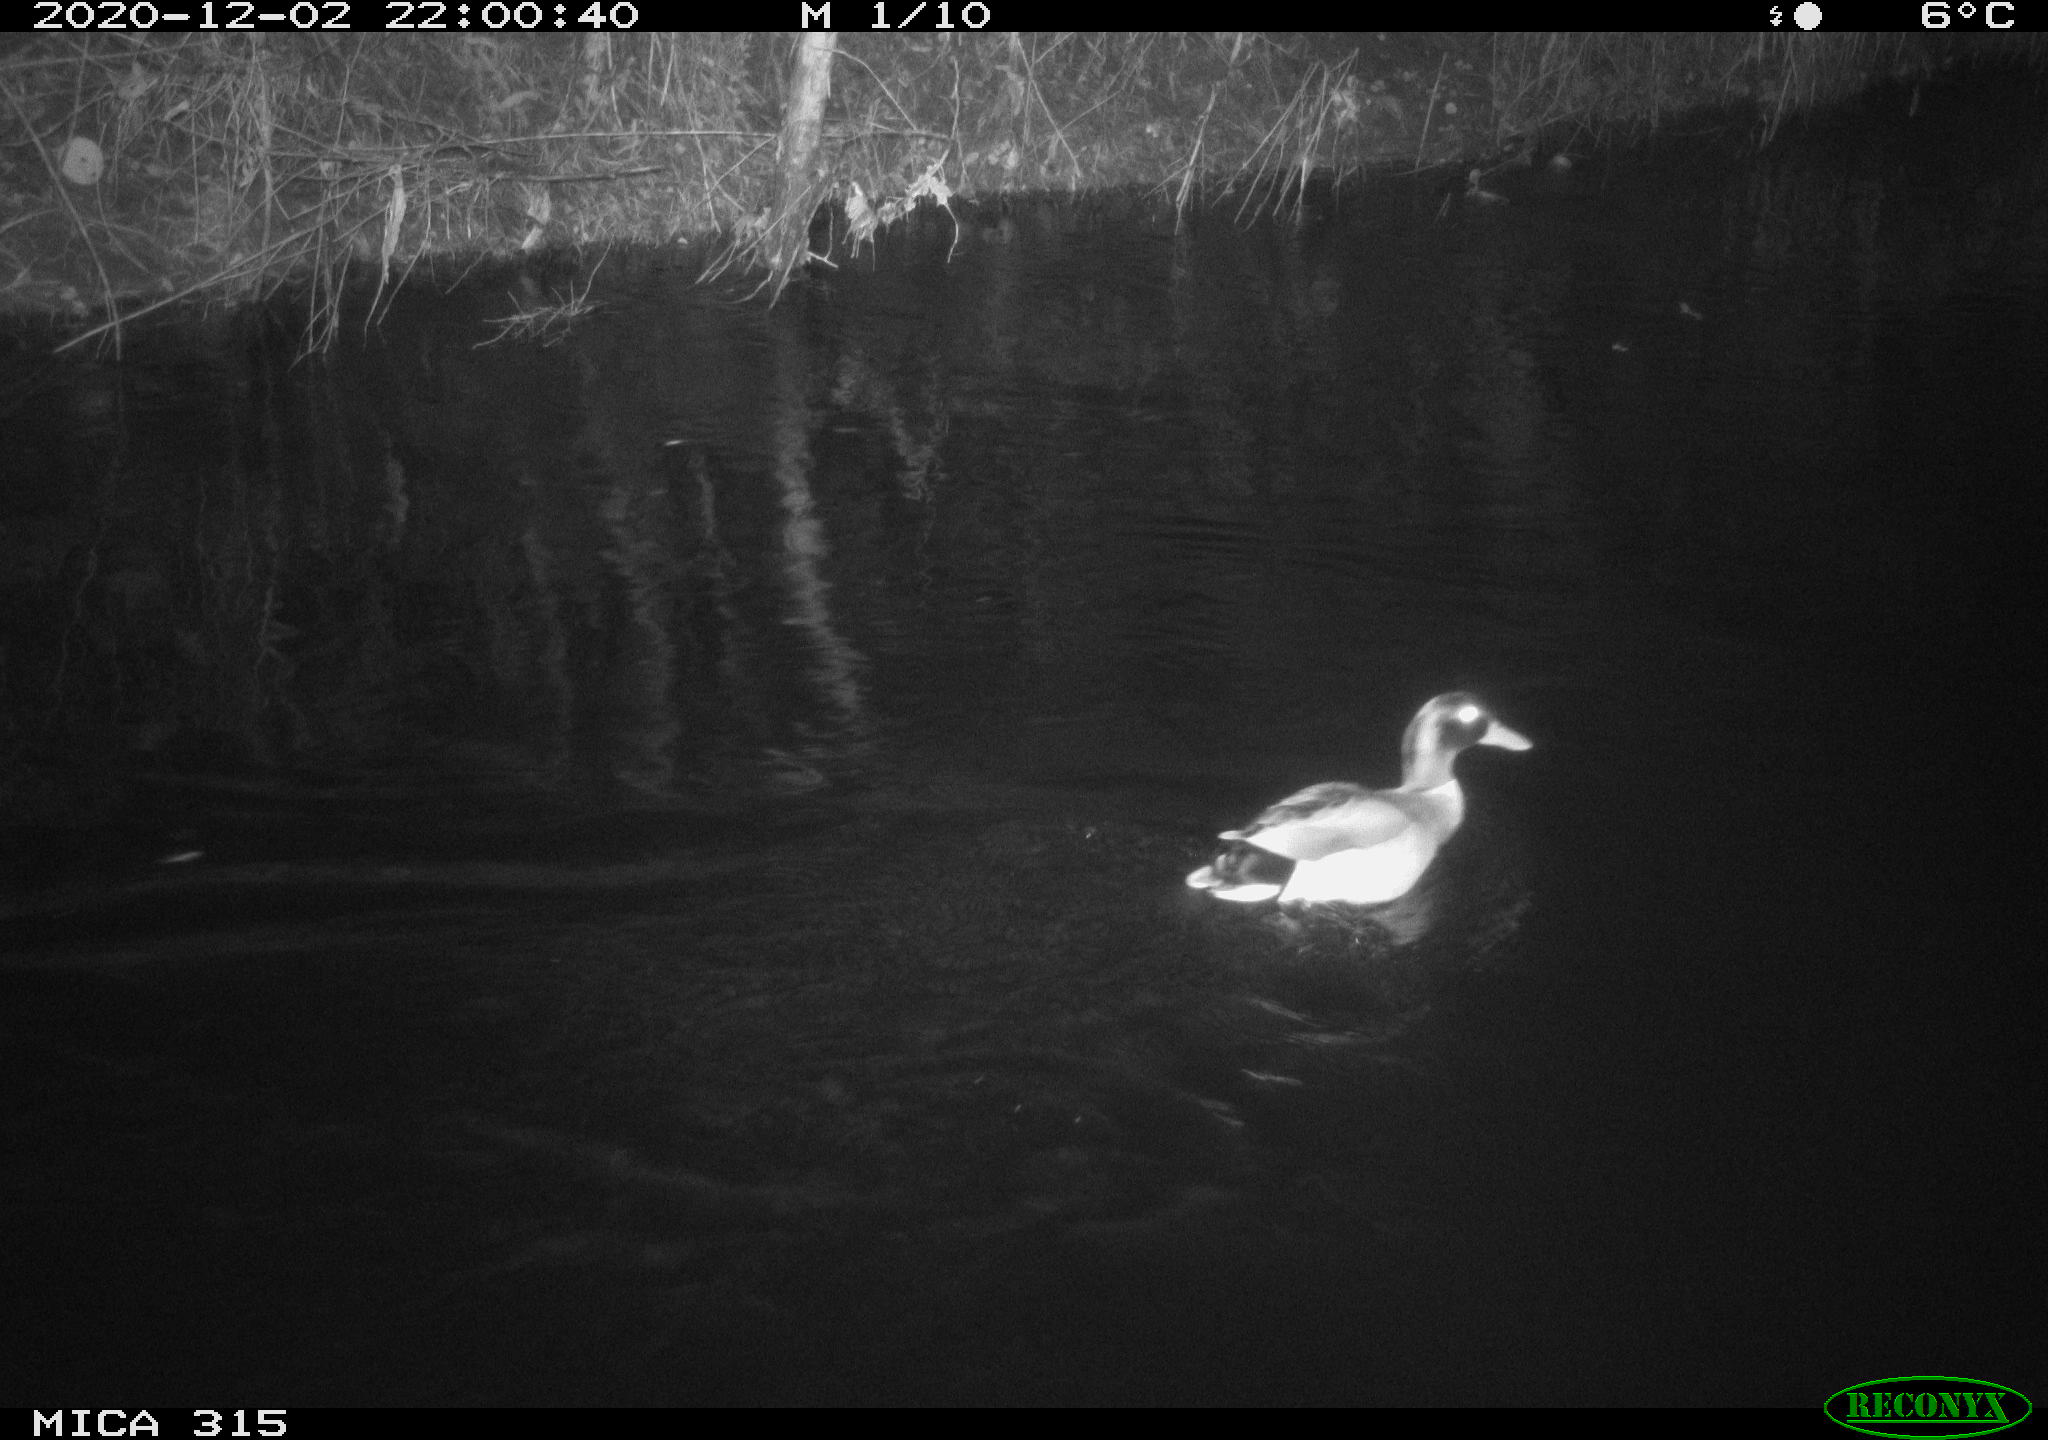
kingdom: Animalia
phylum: Chordata
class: Aves
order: Anseriformes
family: Anatidae
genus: Anas
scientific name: Anas platyrhynchos
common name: Mallard
